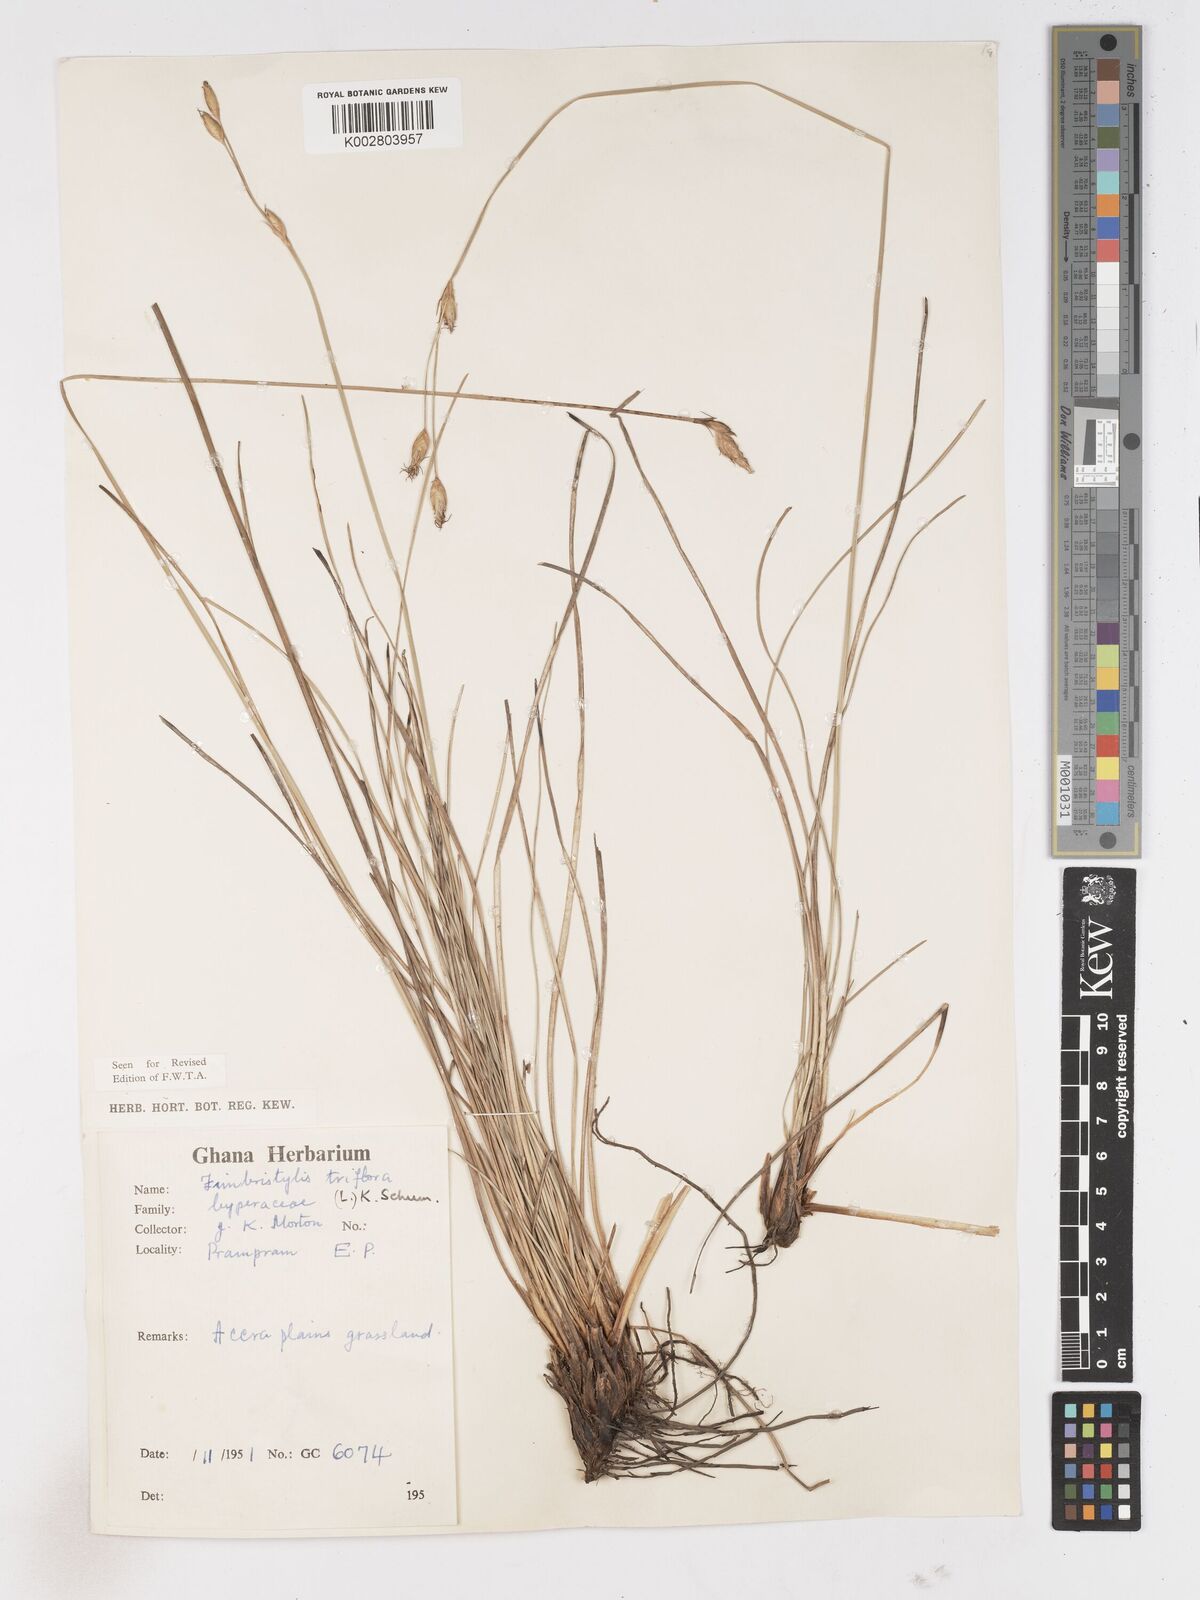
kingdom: Plantae
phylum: Tracheophyta
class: Liliopsida
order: Poales
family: Cyperaceae
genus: Abildgaardia
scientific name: Abildgaardia triflora
